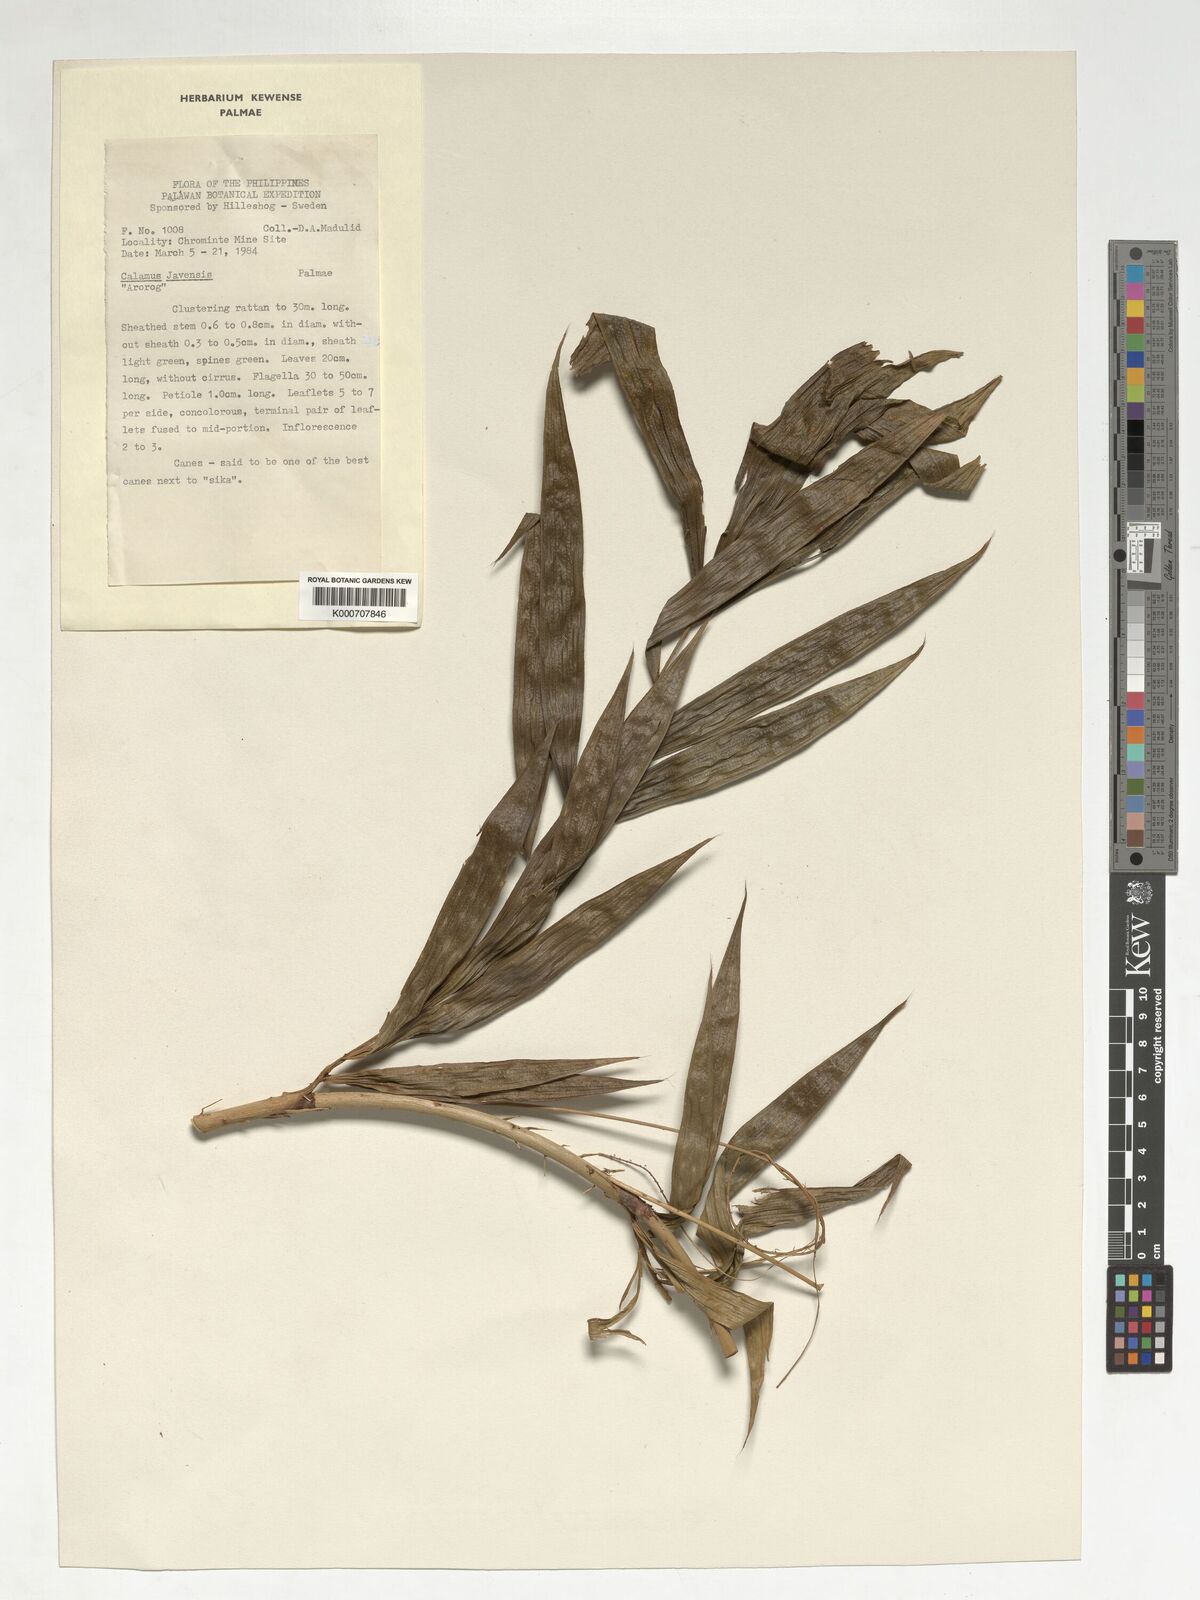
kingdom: Plantae
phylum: Tracheophyta
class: Liliopsida
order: Arecales
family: Arecaceae
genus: Calamus
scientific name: Calamus javensis
